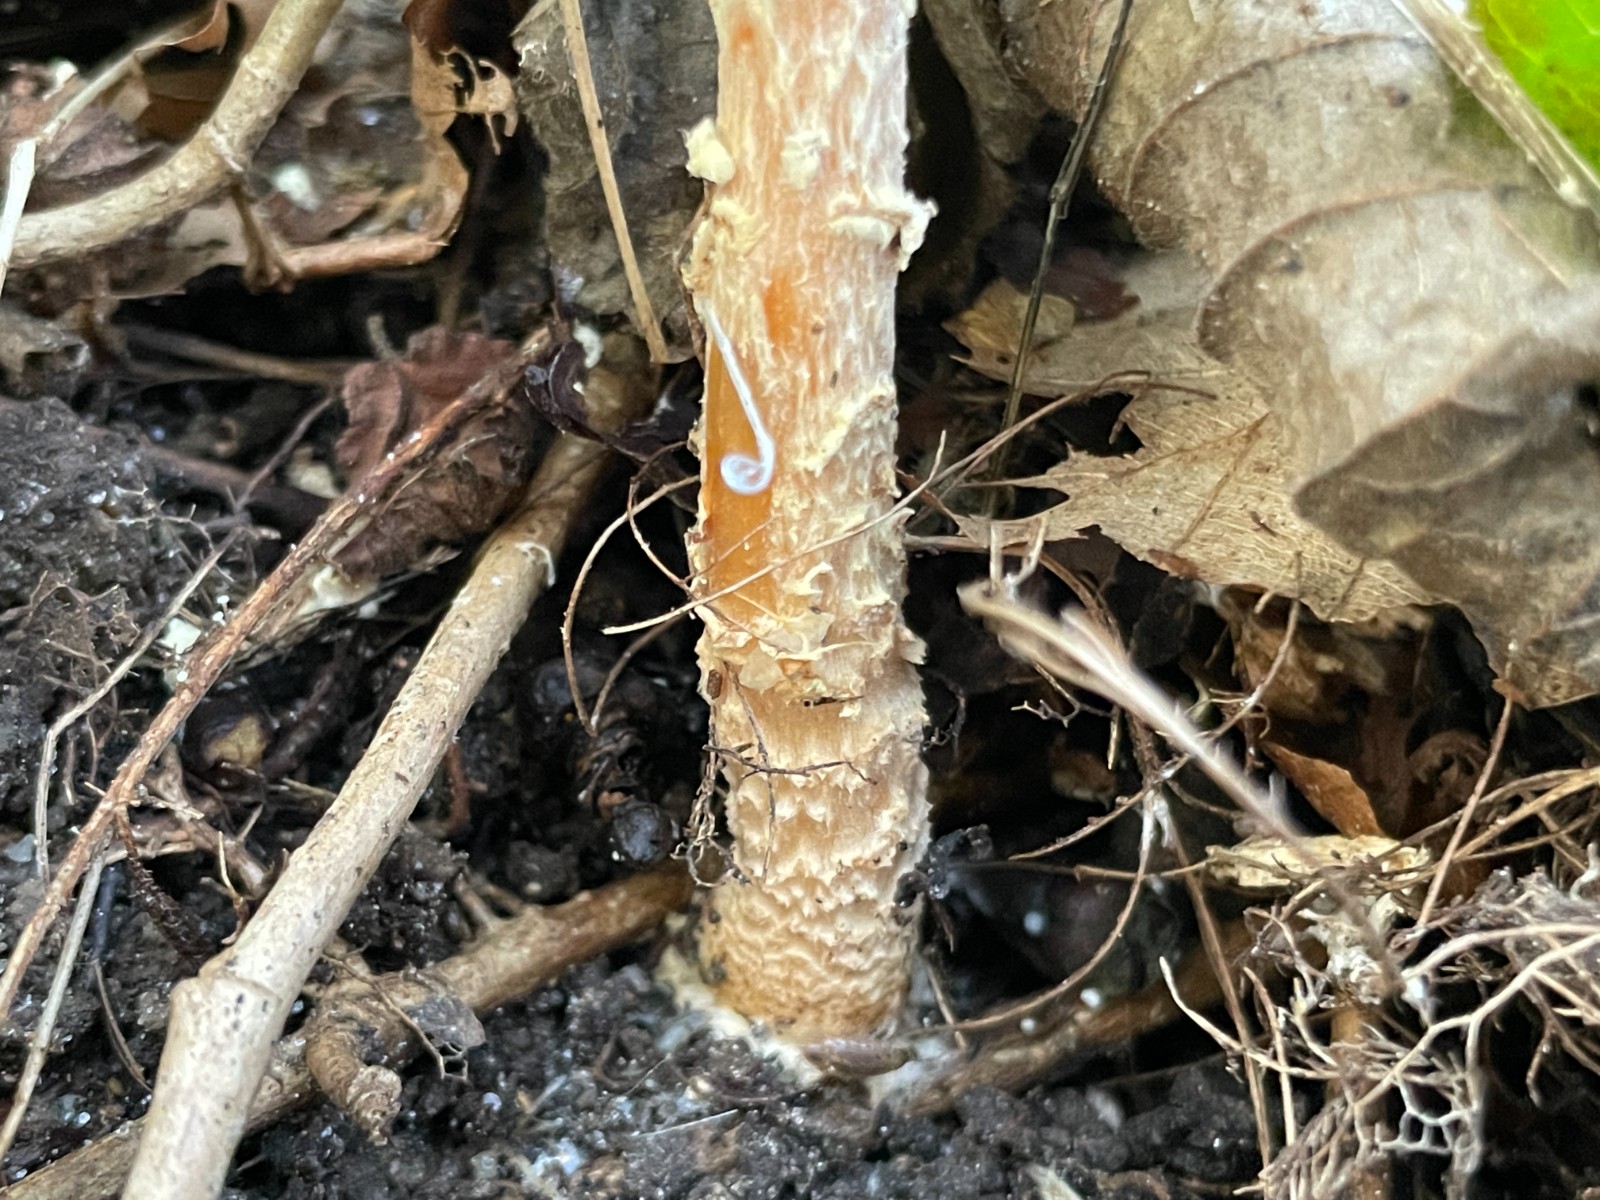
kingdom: Fungi
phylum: Basidiomycota
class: Agaricomycetes
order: Agaricales
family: Agaricaceae
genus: Lepiota
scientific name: Lepiota magnispora
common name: gulfnugget parasolhat
